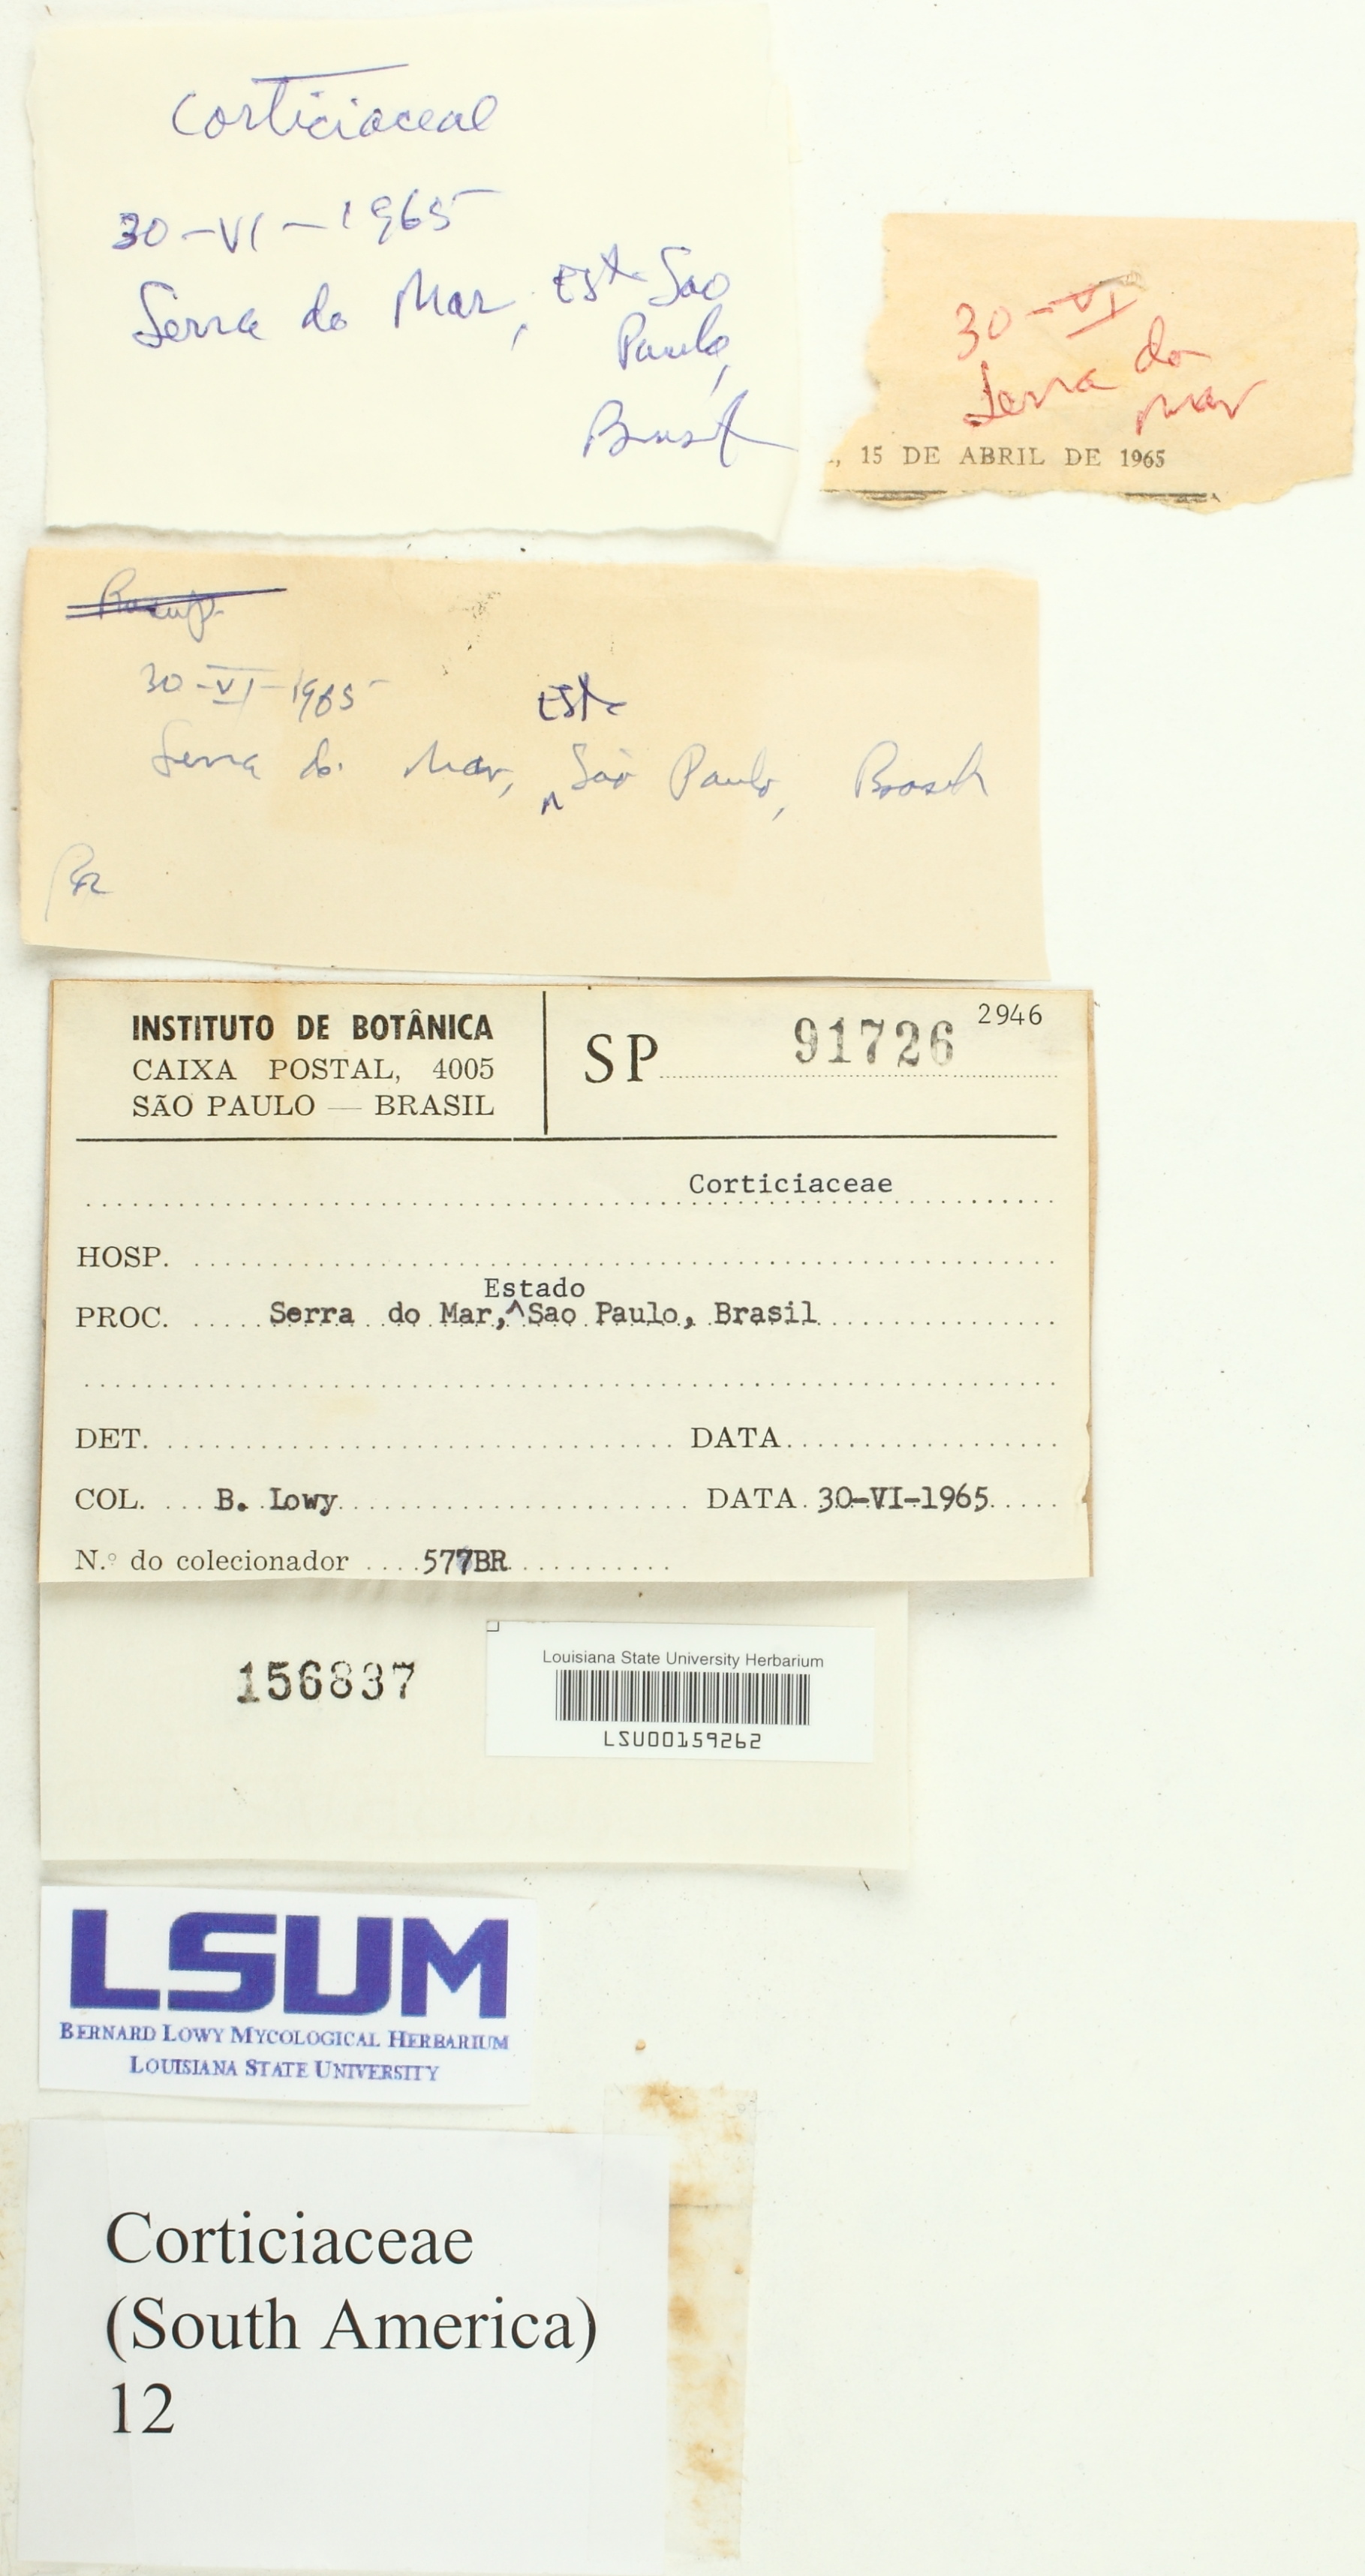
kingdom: Fungi
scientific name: Fungi
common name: Fungi
